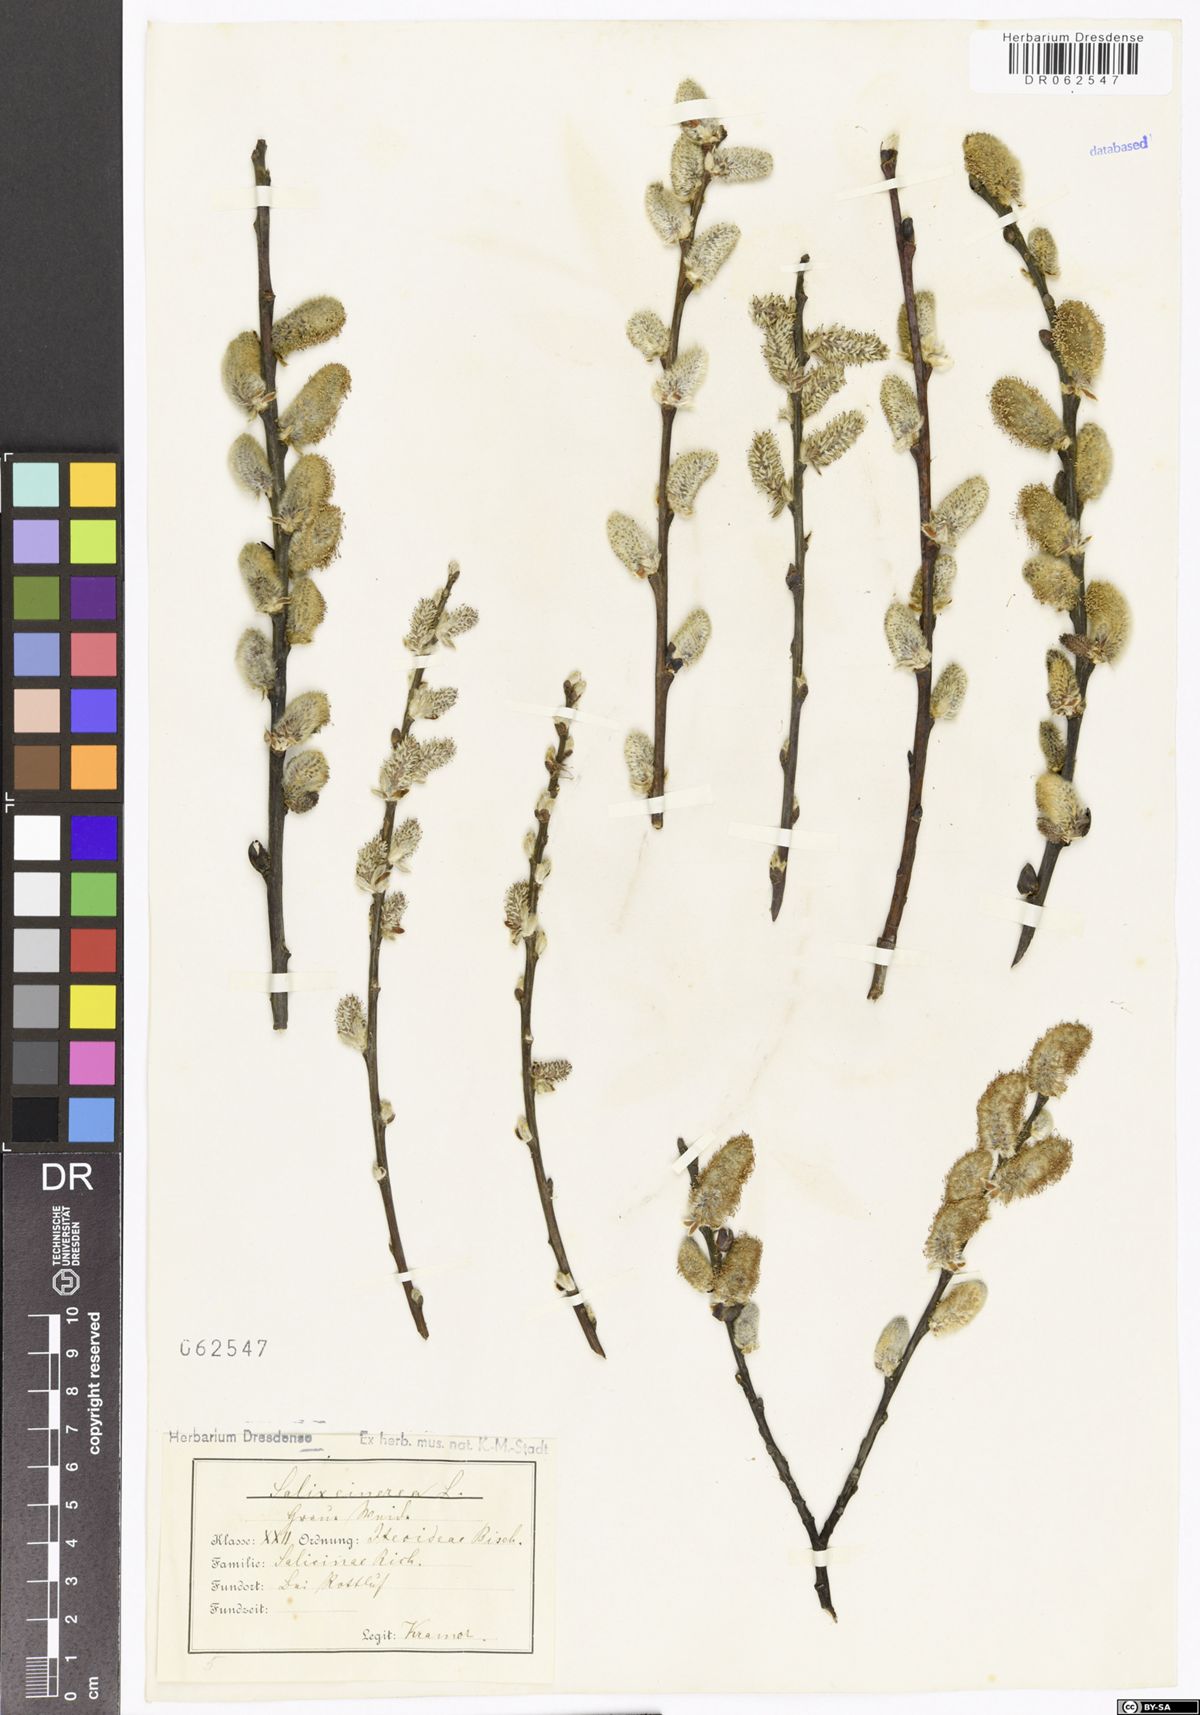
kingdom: Plantae
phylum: Tracheophyta
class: Magnoliopsida
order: Malpighiales
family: Salicaceae
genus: Salix
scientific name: Salix cinerea
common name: Common sallow
